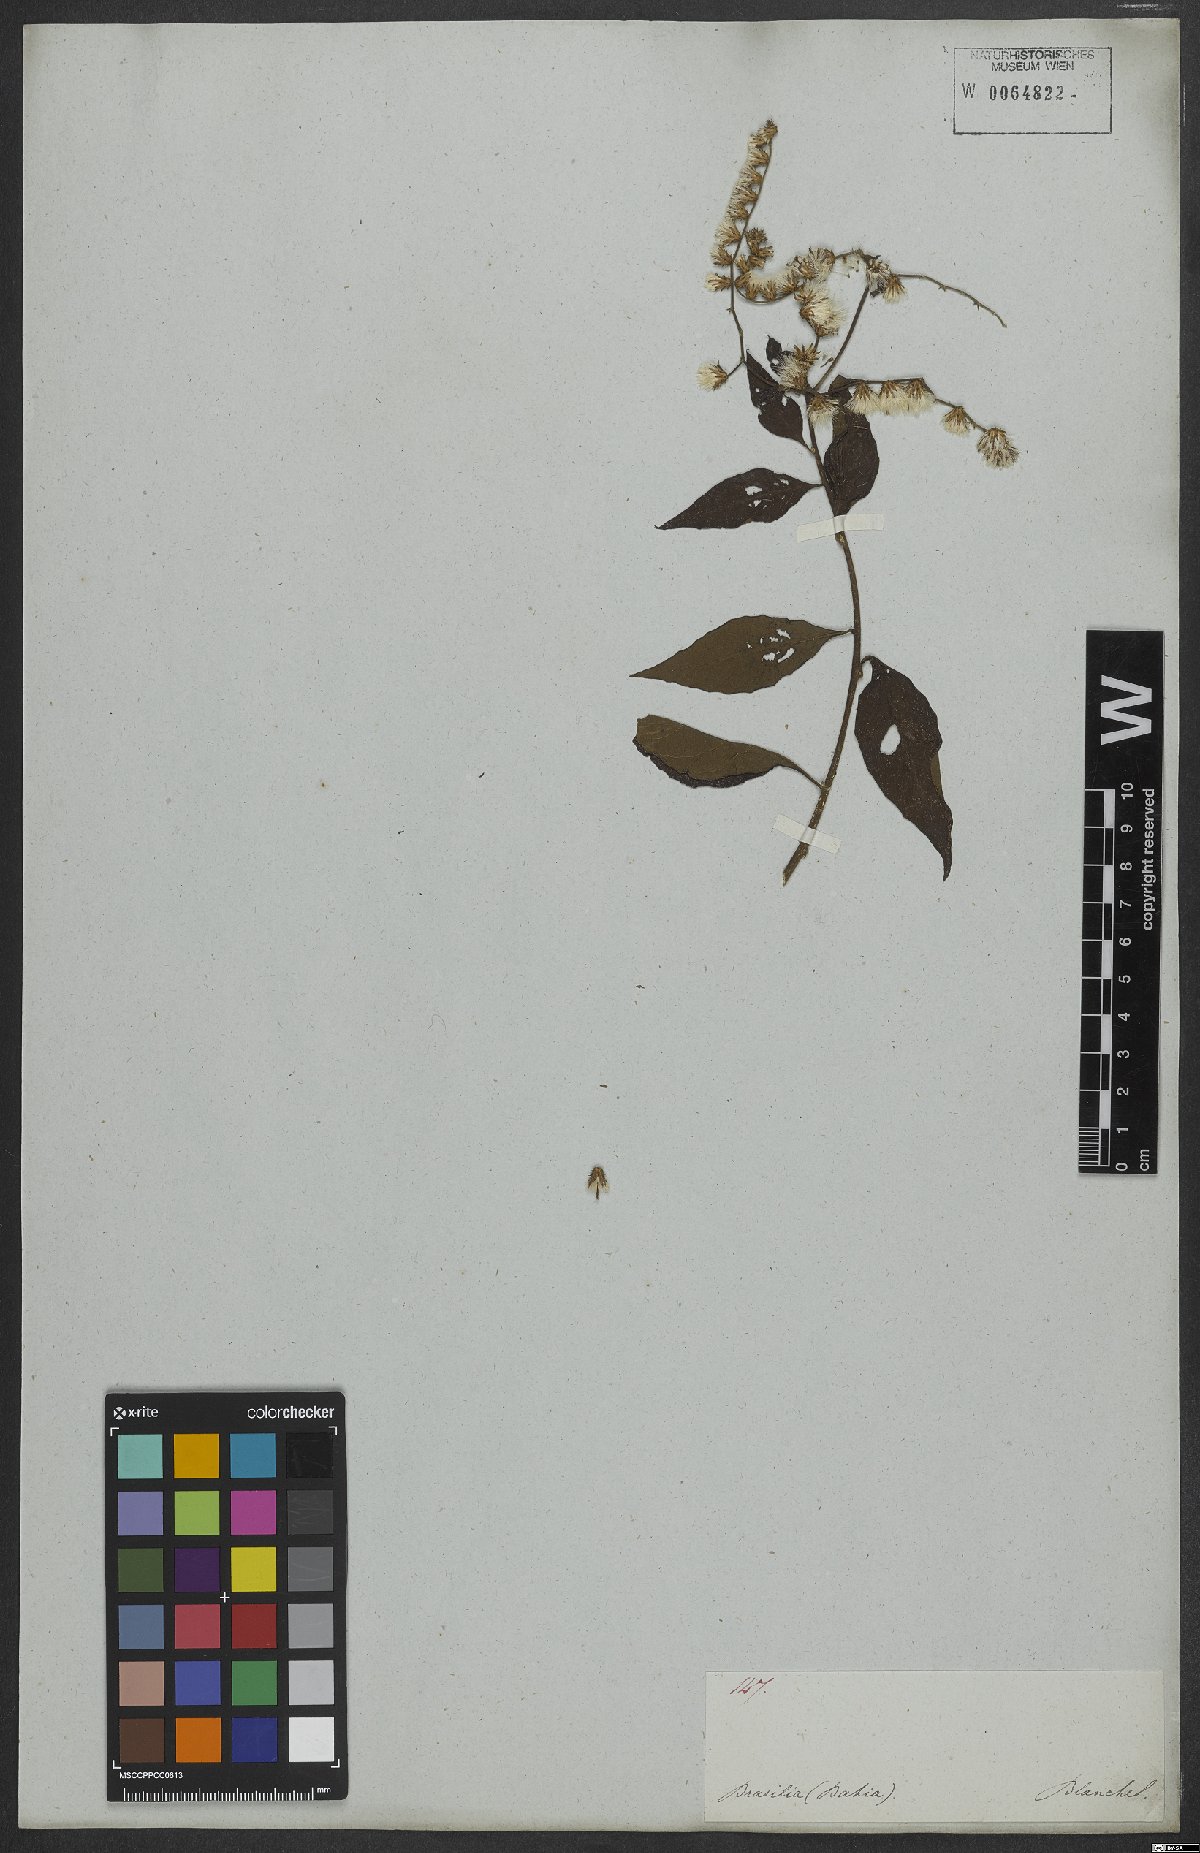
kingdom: Plantae
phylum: Tracheophyta
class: Magnoliopsida
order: Asterales
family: Asteraceae
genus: Cyrtocymura
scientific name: Cyrtocymura scorpioides
